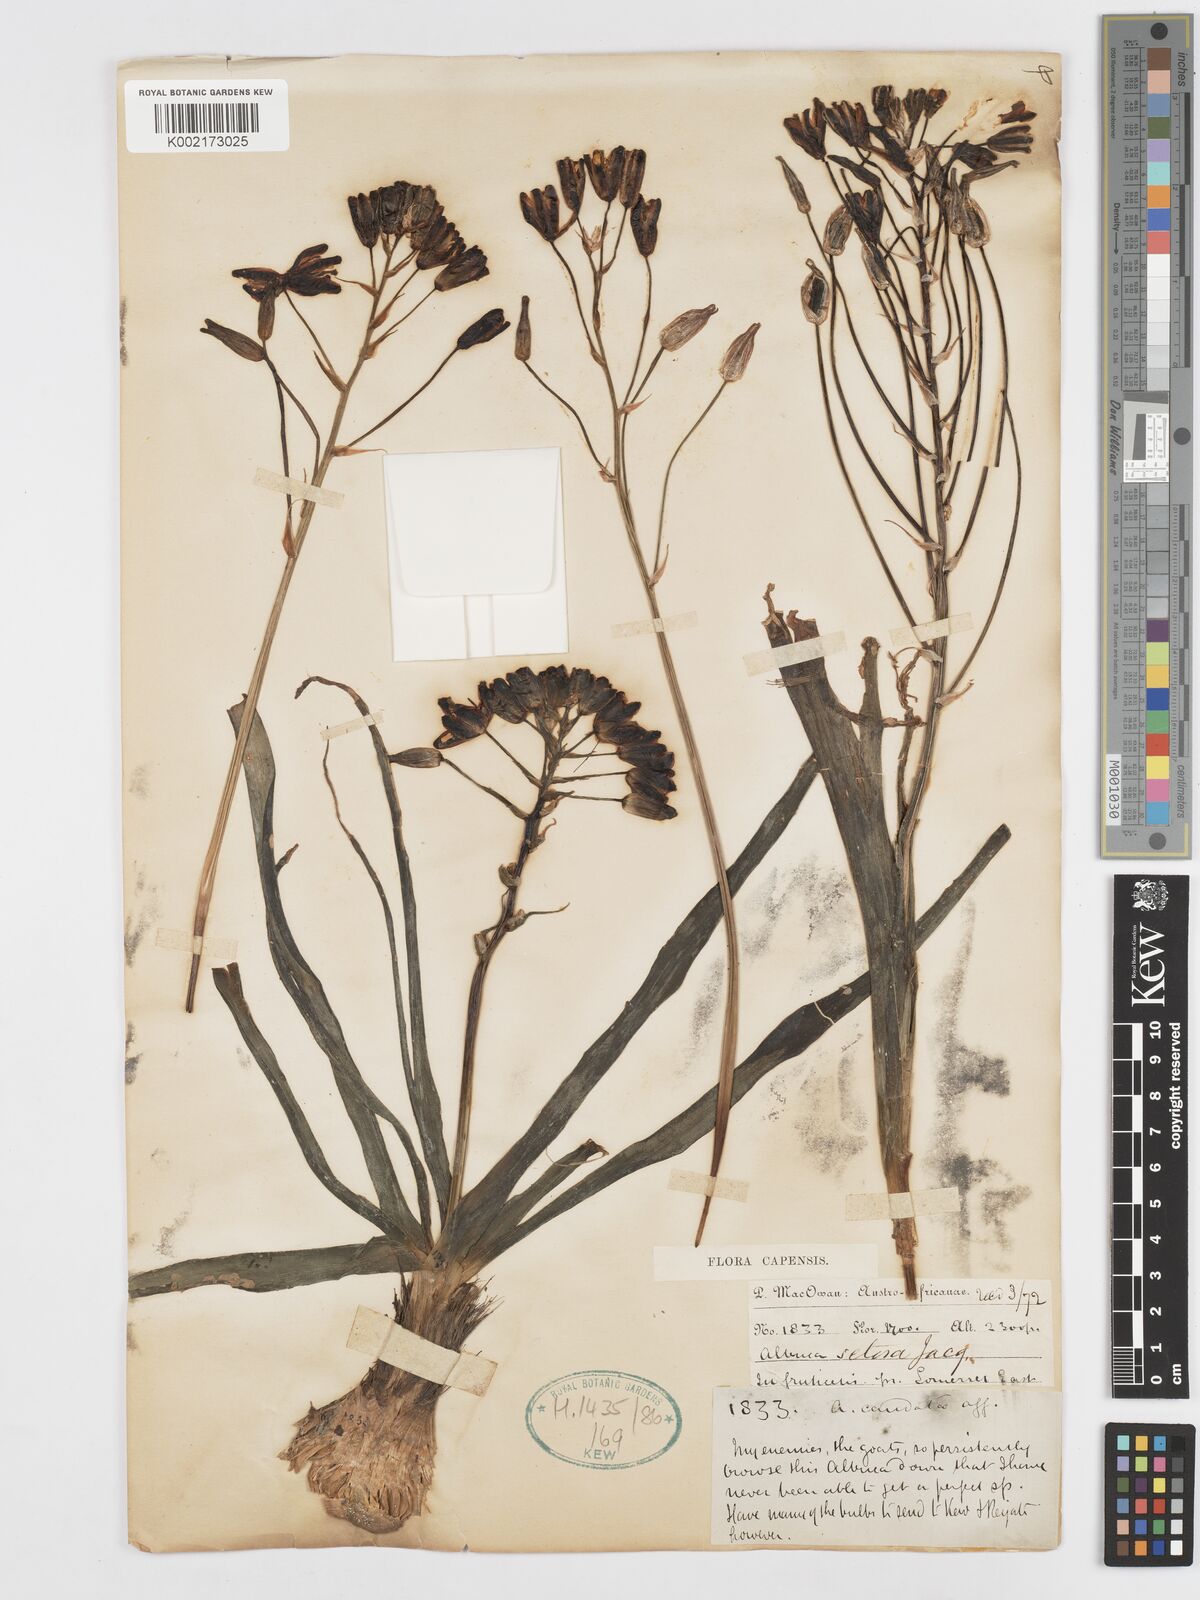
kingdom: Plantae
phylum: Tracheophyta
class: Liliopsida
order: Asparagales
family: Asparagaceae
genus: Albuca
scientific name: Albuca setosa
